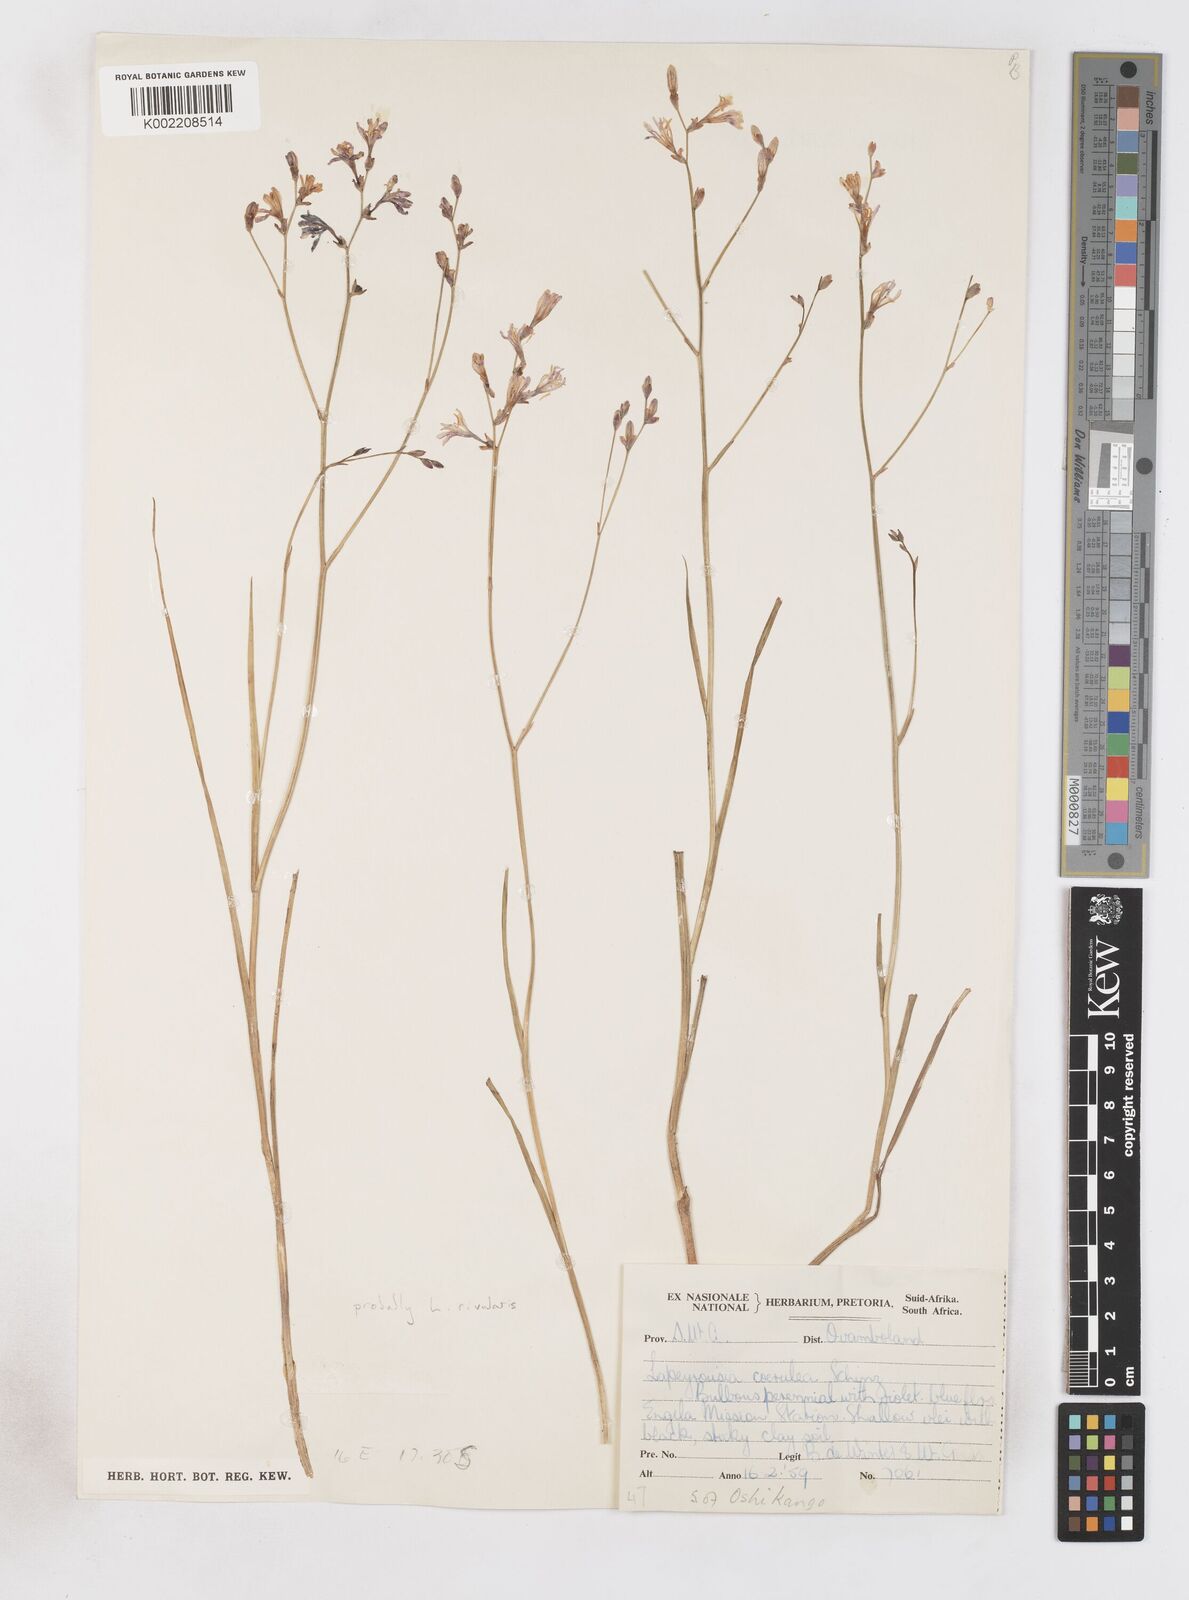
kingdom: Plantae
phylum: Tracheophyta
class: Liliopsida
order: Asparagales
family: Iridaceae
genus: Afrosolen
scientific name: Afrosolen rivularis
